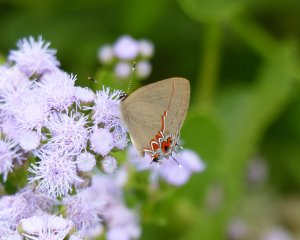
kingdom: Animalia
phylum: Arthropoda
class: Insecta
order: Lepidoptera
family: Lycaenidae
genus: Calycopis
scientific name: Calycopis isobeon
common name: Dusky-blue Groundstreak
